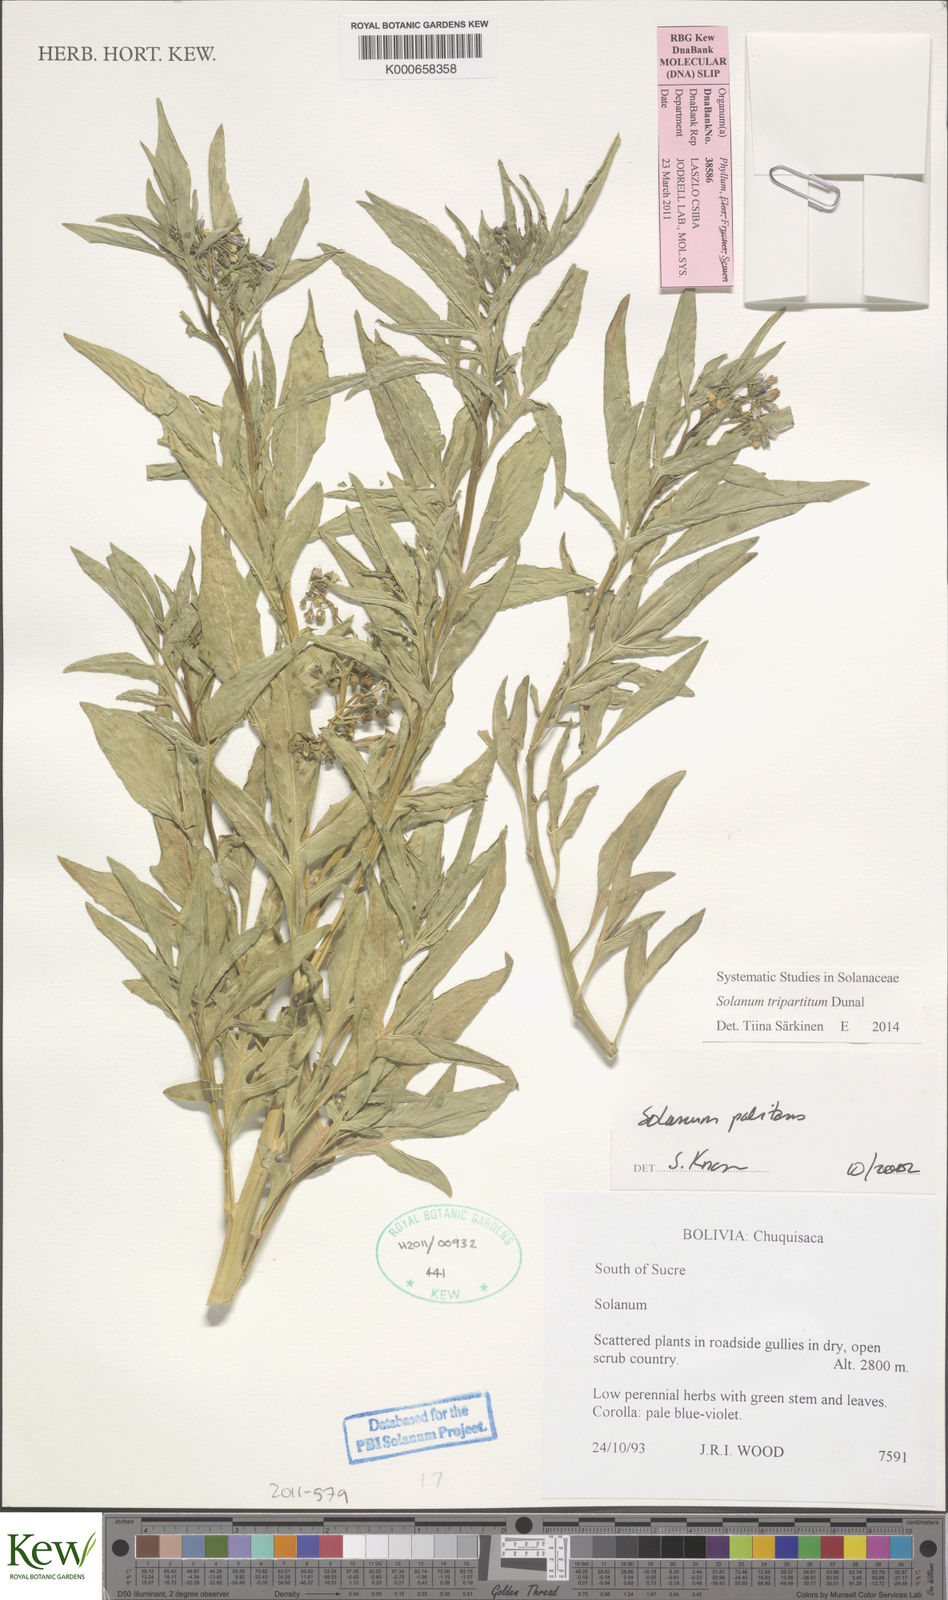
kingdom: Plantae
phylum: Tracheophyta
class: Magnoliopsida
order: Solanales
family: Solanaceae
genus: Solanum
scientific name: Solanum tripartitum
